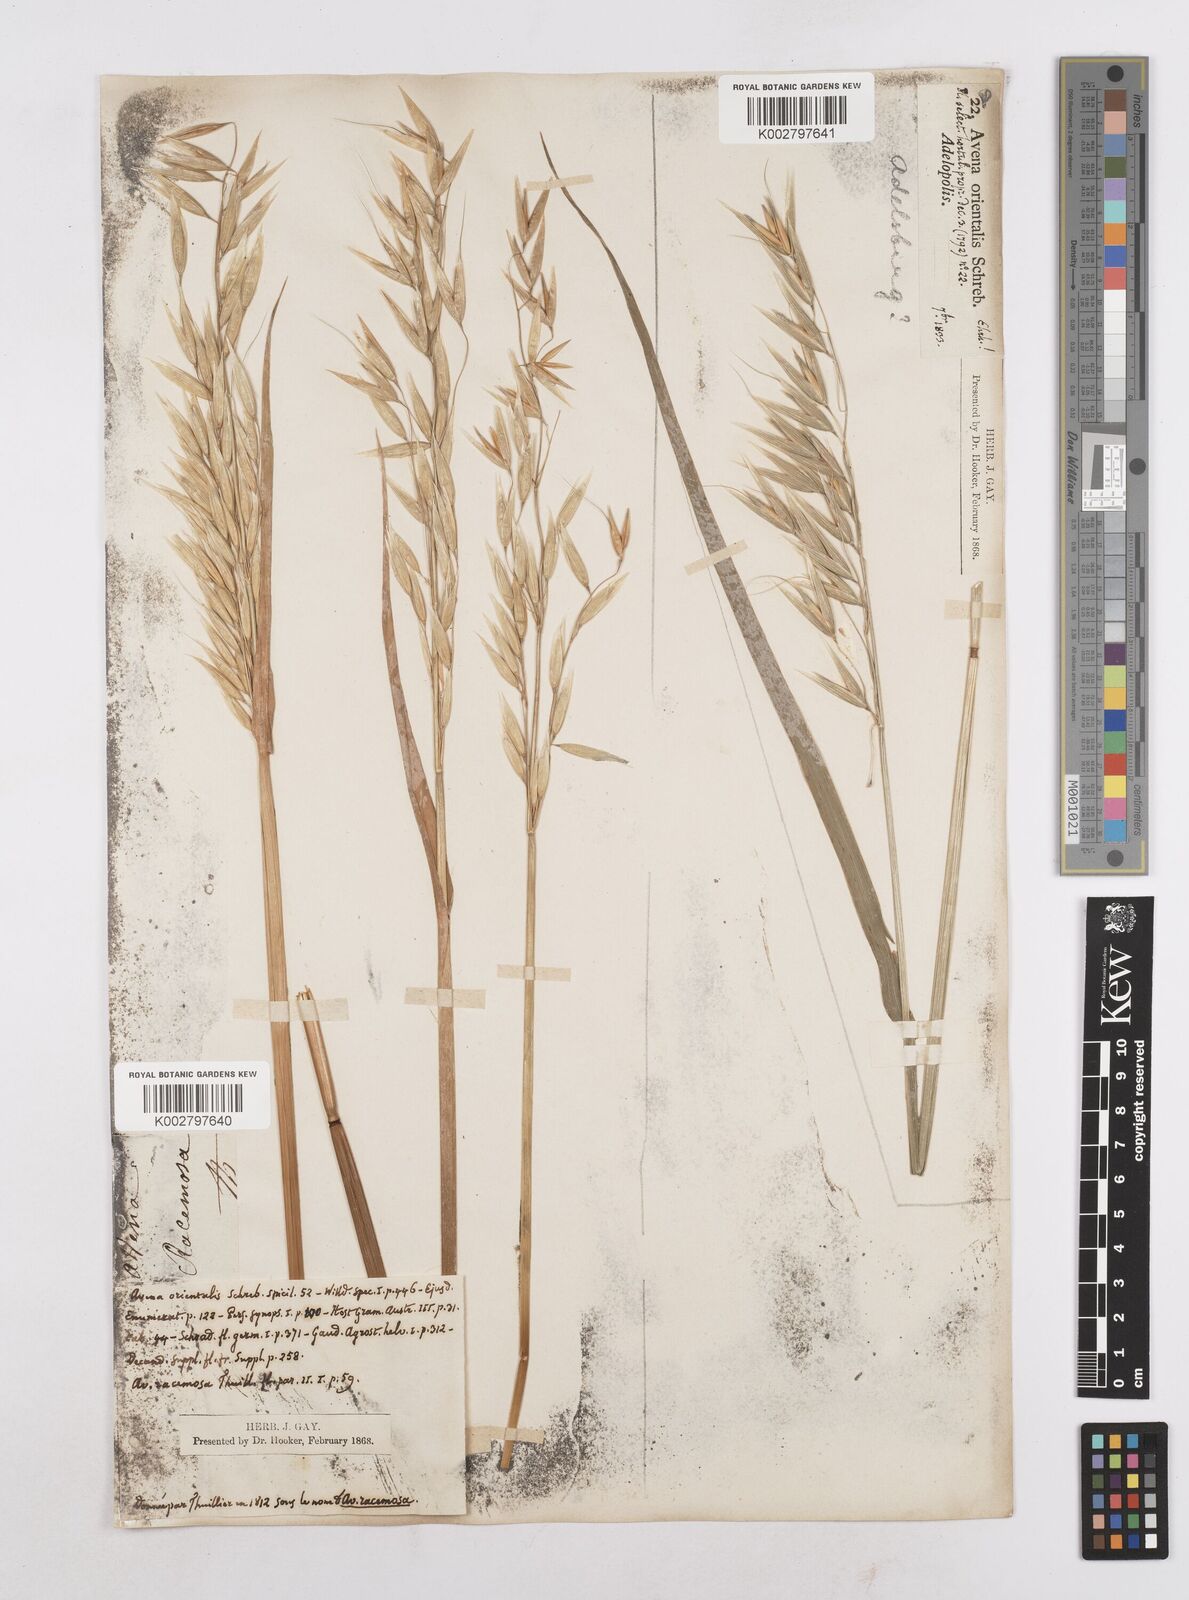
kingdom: Plantae
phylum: Tracheophyta
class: Liliopsida
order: Poales
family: Poaceae
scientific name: Poaceae
